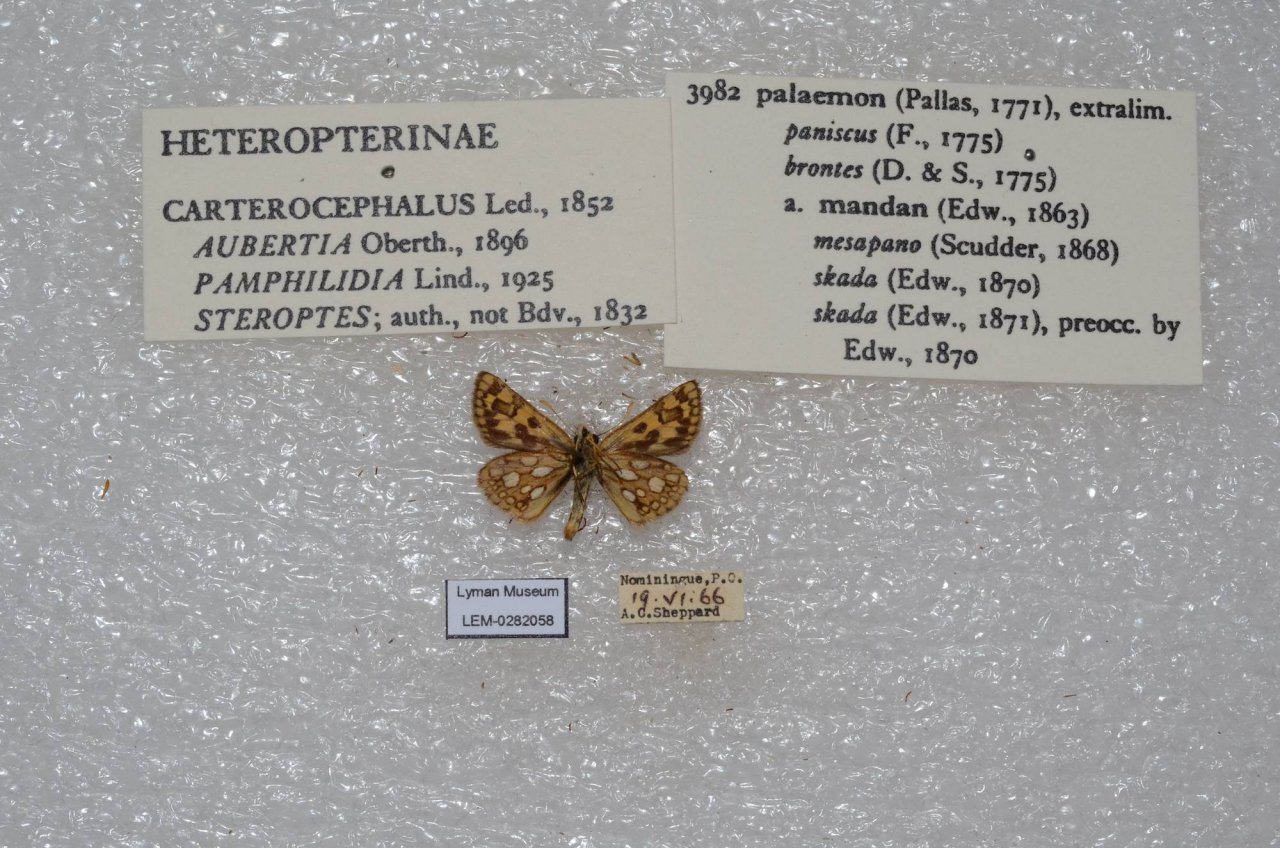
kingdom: Animalia
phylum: Arthropoda
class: Insecta
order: Lepidoptera
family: Hesperiidae
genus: Carterocephalus
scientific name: Carterocephalus palaemon
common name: Chequered Skipper
